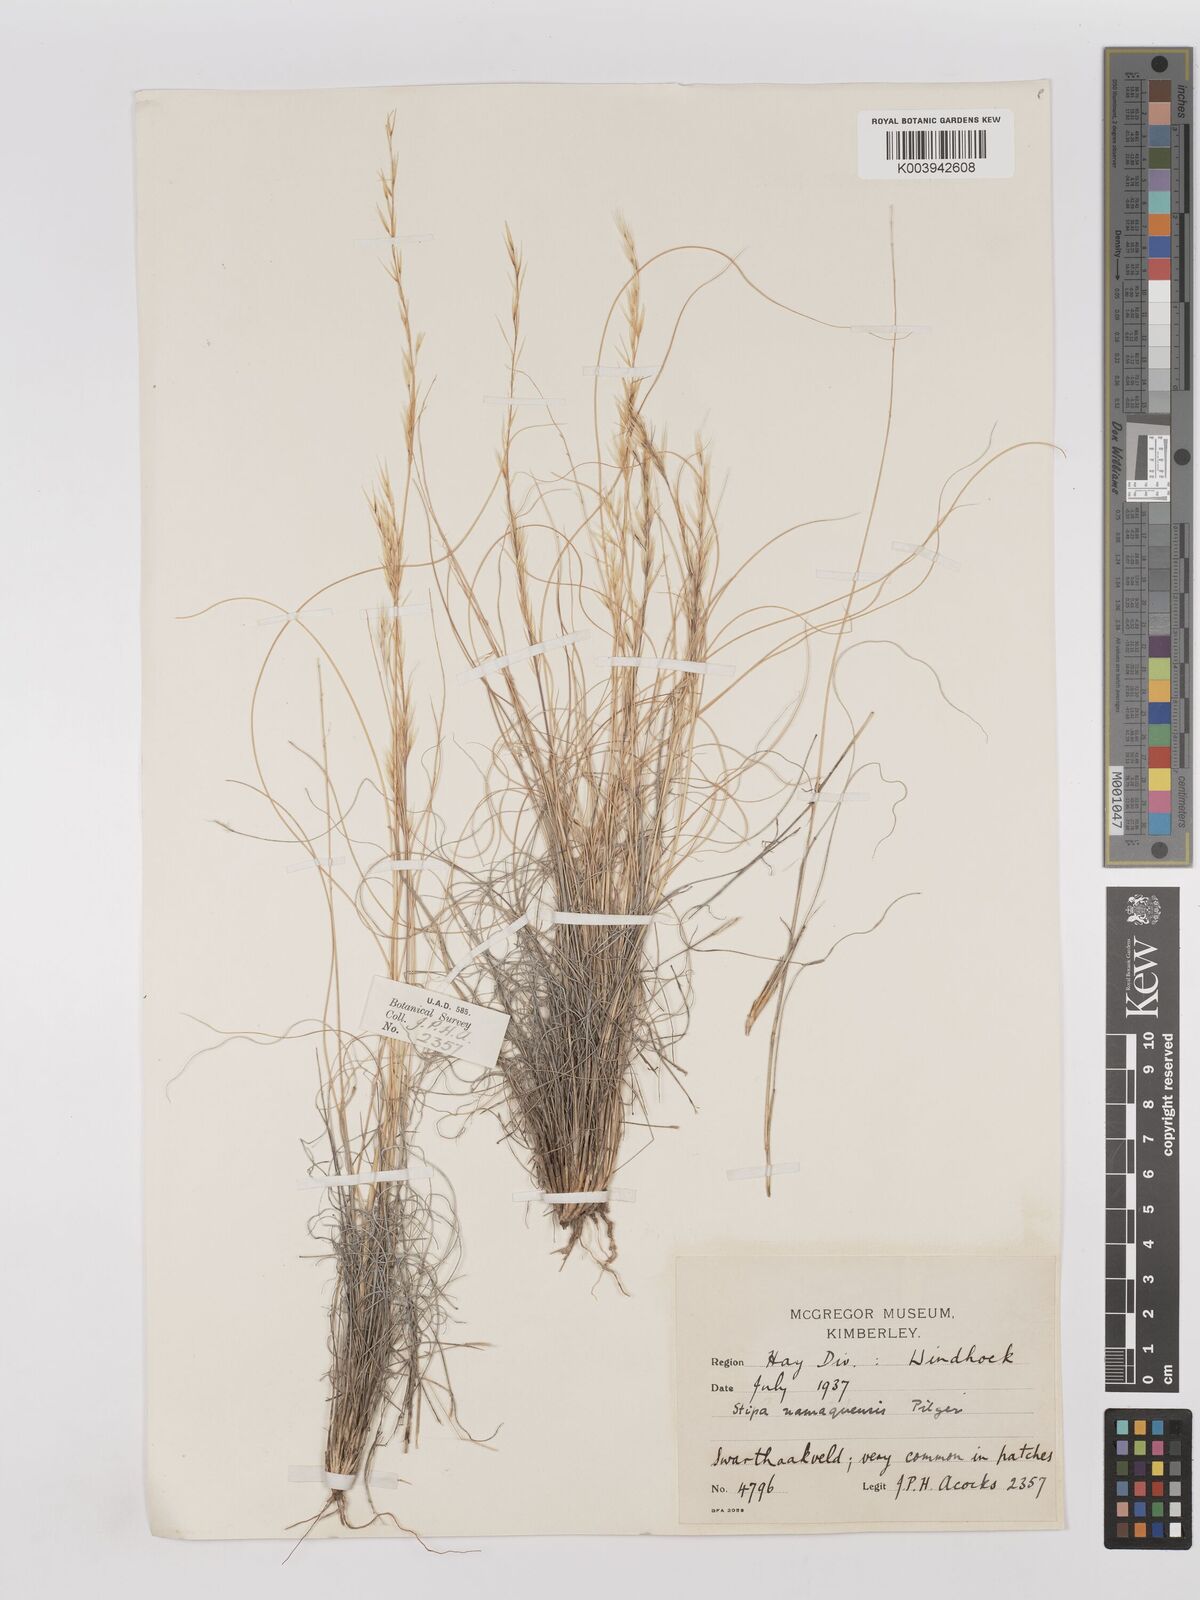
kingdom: Plantae
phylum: Tracheophyta
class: Liliopsida
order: Poales
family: Poaceae
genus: Stipagrostis
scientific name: Stipagrostis anomala
